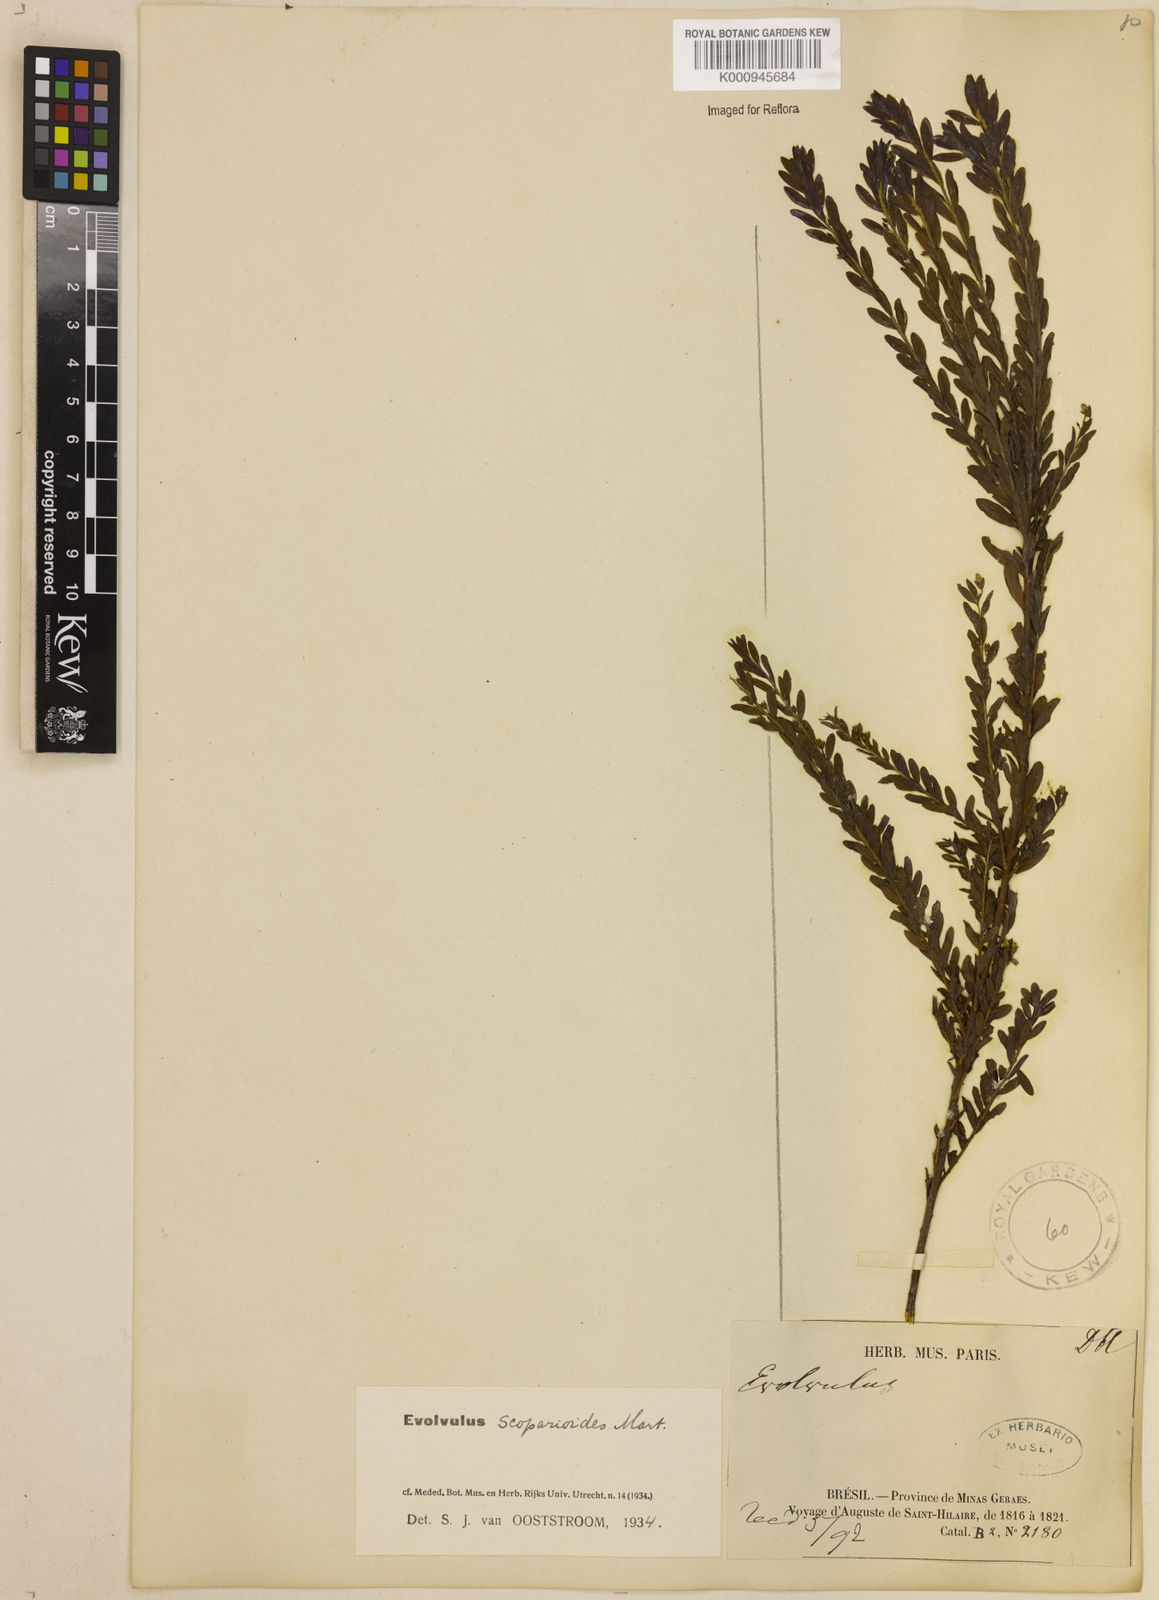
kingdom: Plantae
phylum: Tracheophyta
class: Magnoliopsida
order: Solanales
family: Convolvulaceae
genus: Evolvulus
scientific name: Evolvulus scoparioides
